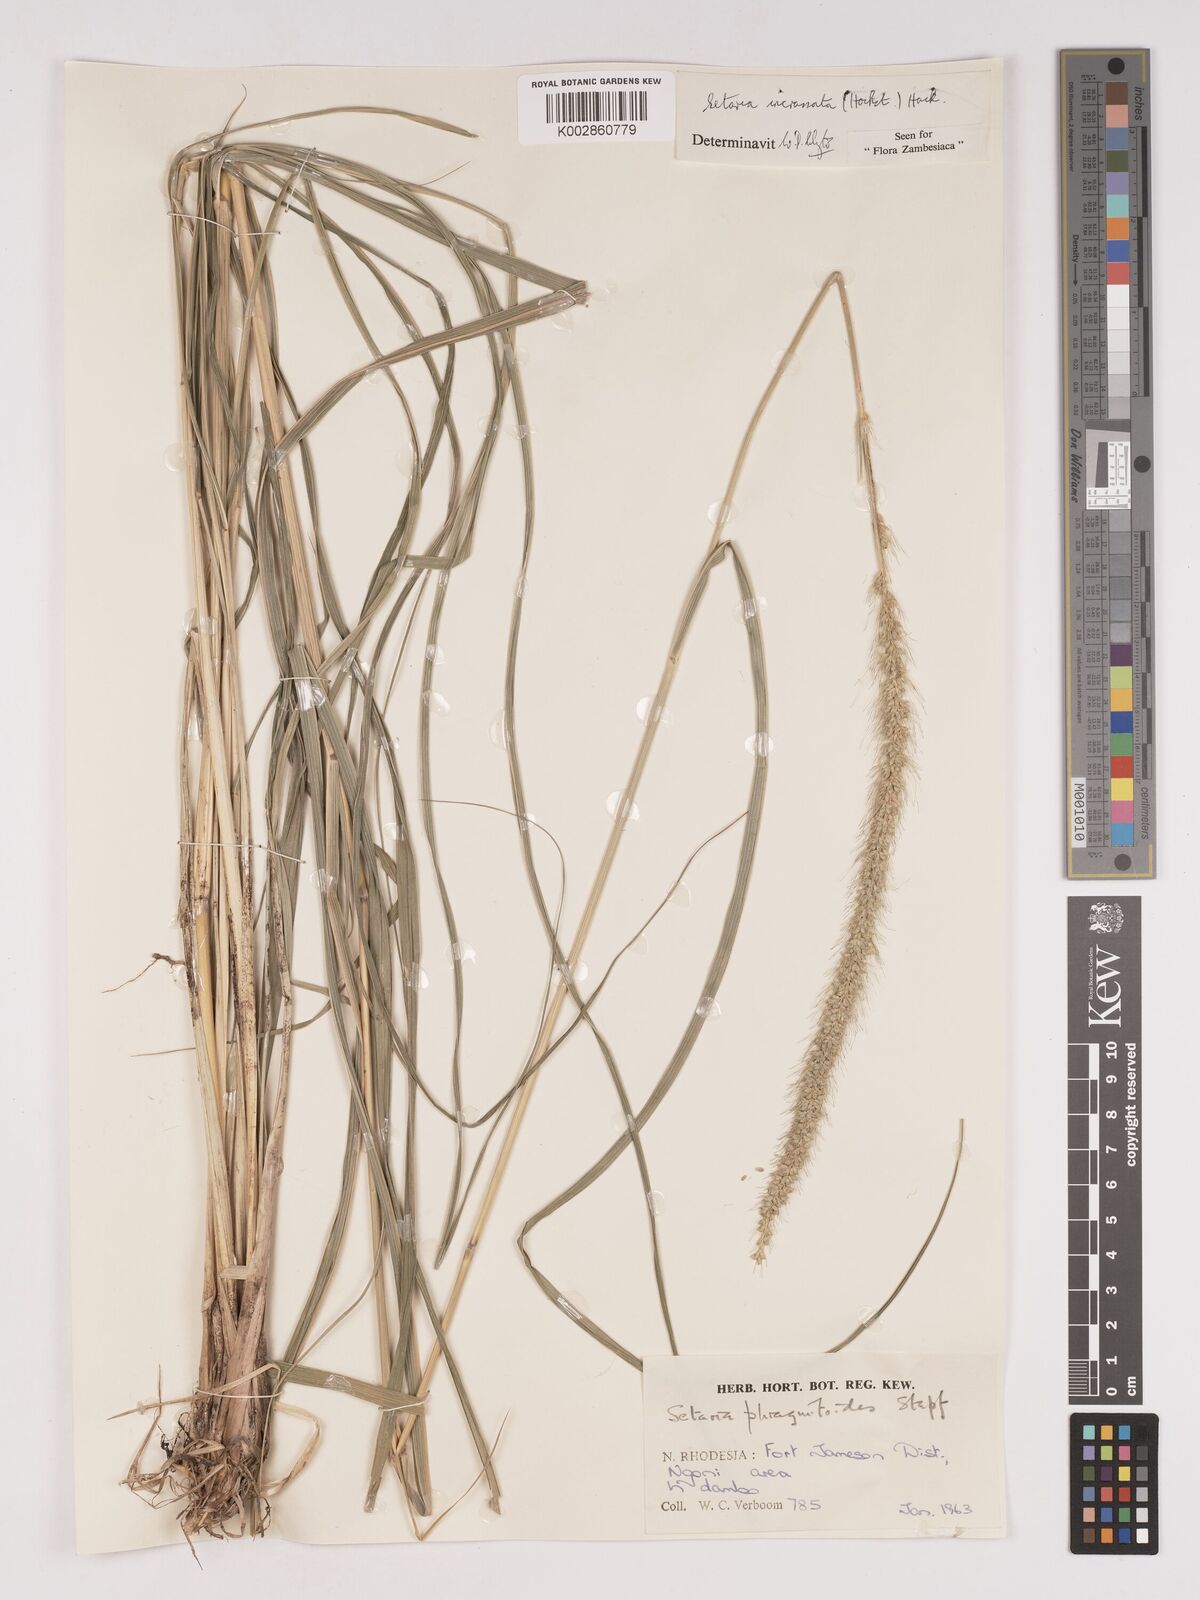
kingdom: Plantae
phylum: Tracheophyta
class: Liliopsida
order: Poales
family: Poaceae
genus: Setaria
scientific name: Setaria incrassata
